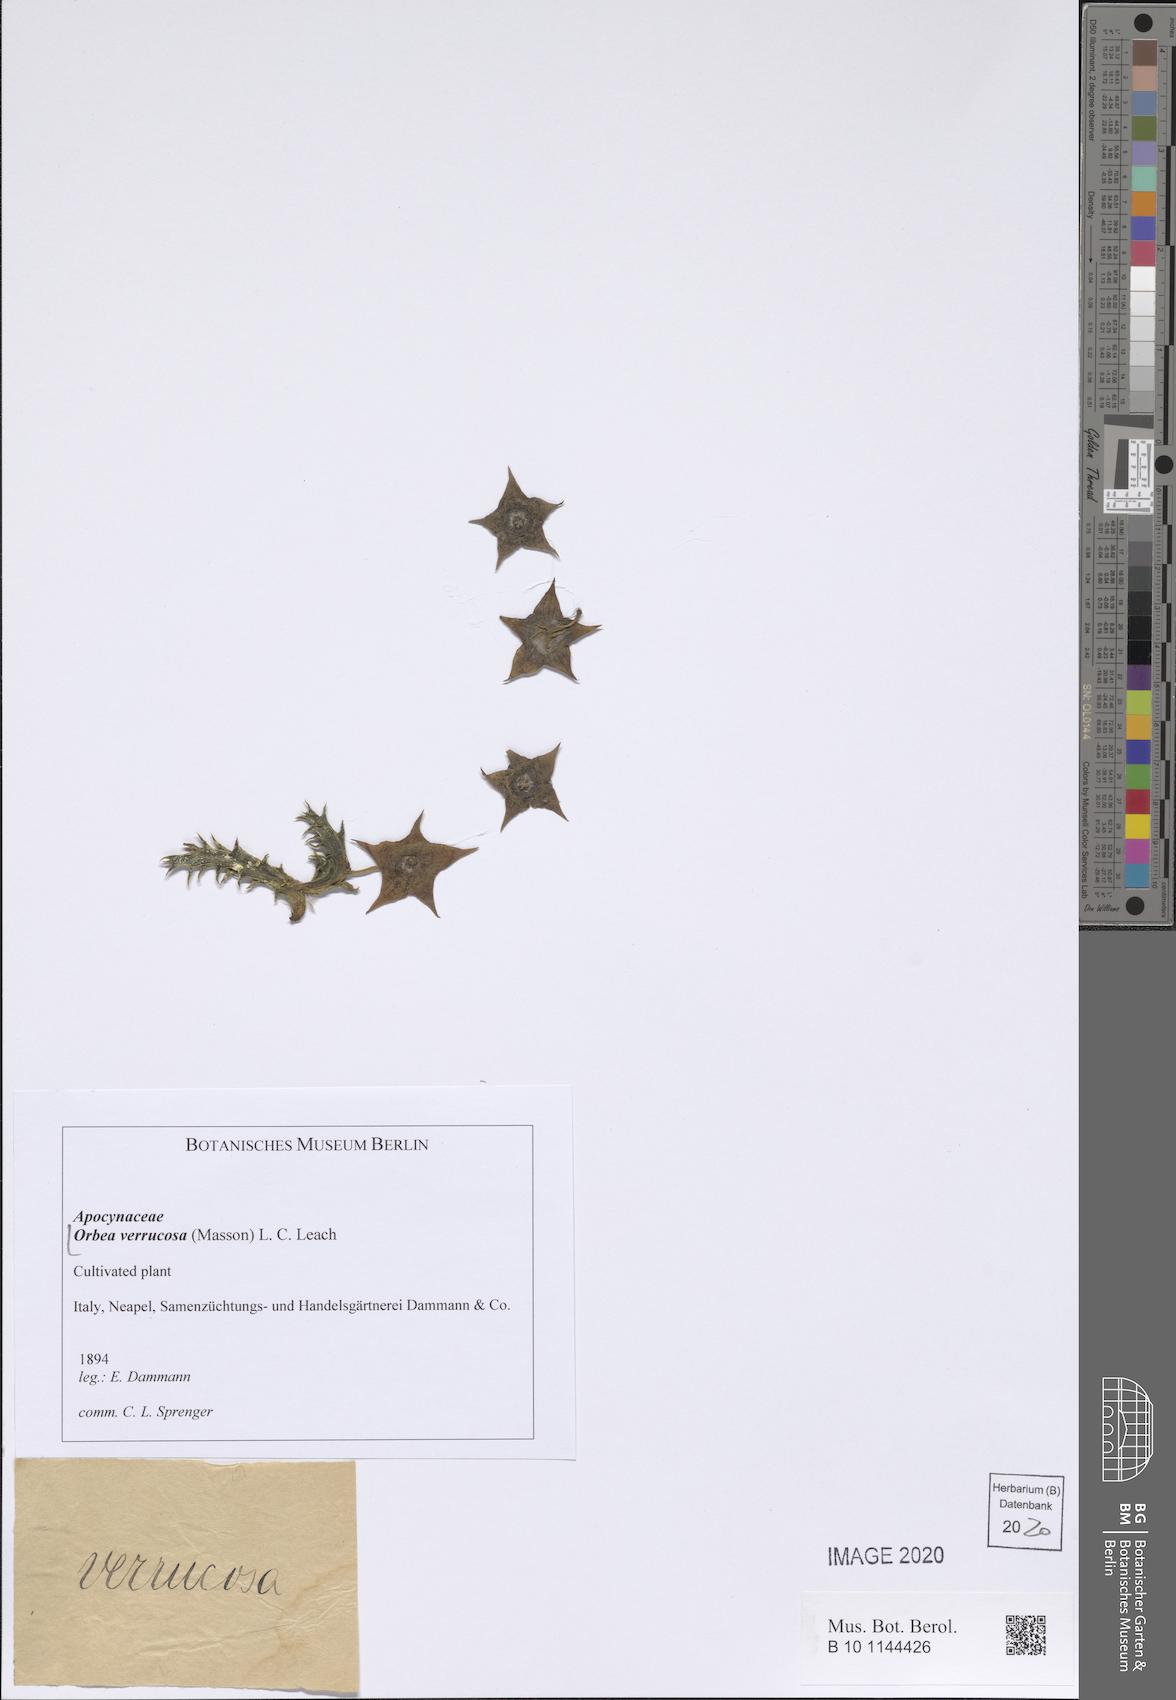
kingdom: Plantae
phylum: Tracheophyta
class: Magnoliopsida
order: Gentianales
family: Apocynaceae
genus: Ceropegia
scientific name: Ceropegia irrorata
